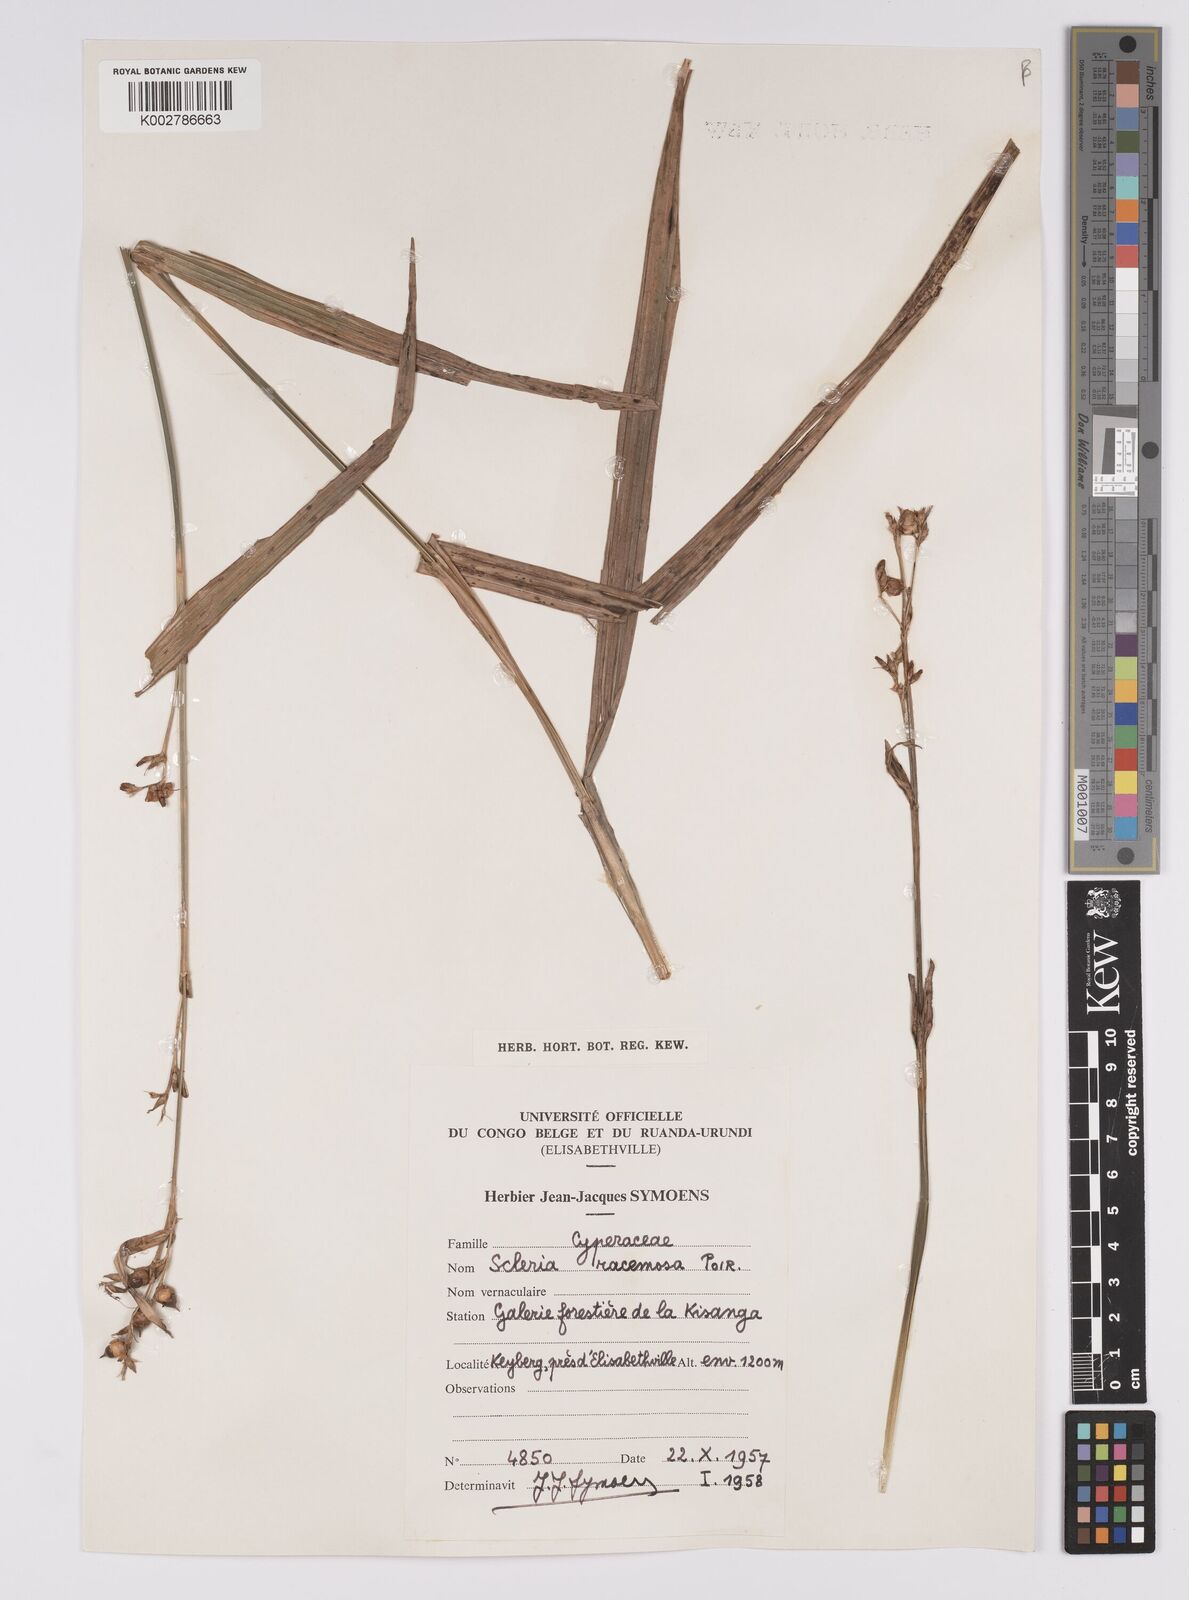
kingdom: Plantae
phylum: Tracheophyta
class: Liliopsida
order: Poales
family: Cyperaceae
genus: Scleria
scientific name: Scleria racemosa
